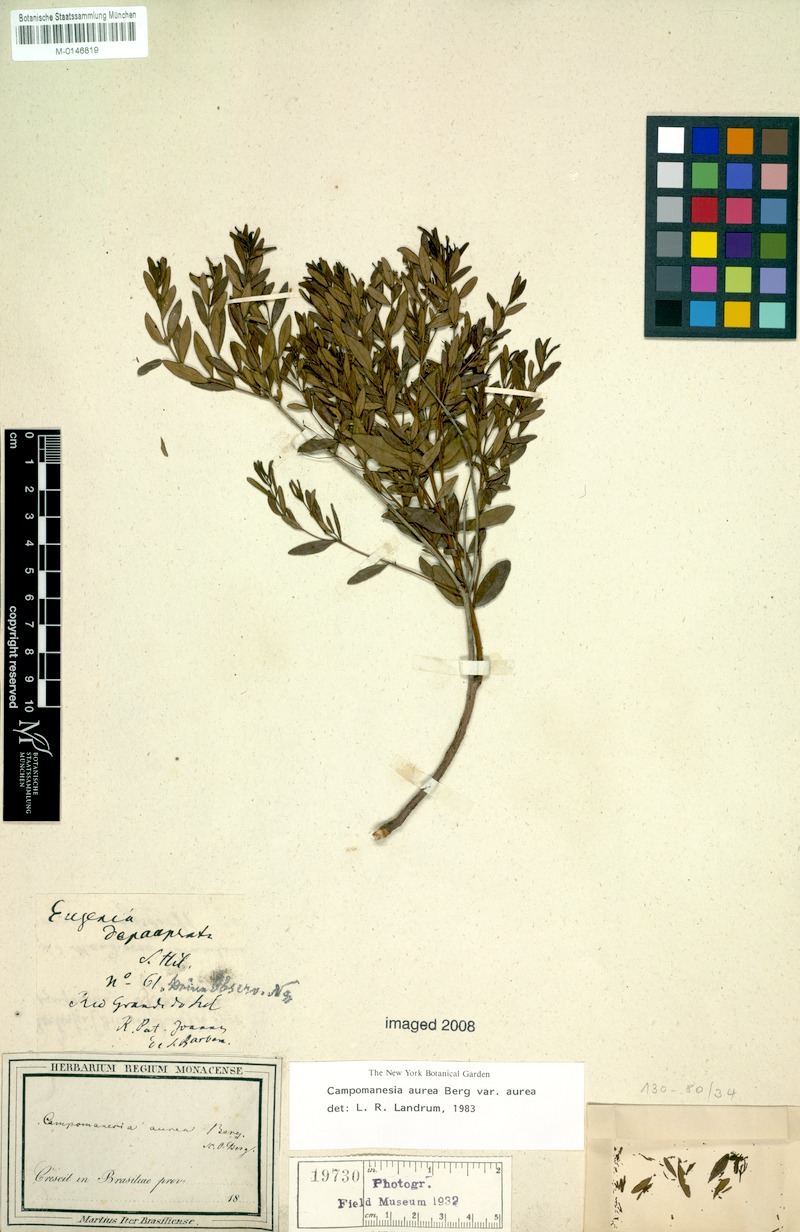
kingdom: Plantae
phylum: Tracheophyta
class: Magnoliopsida
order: Myrtales
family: Myrtaceae
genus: Campomanesia
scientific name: Campomanesia aurea
